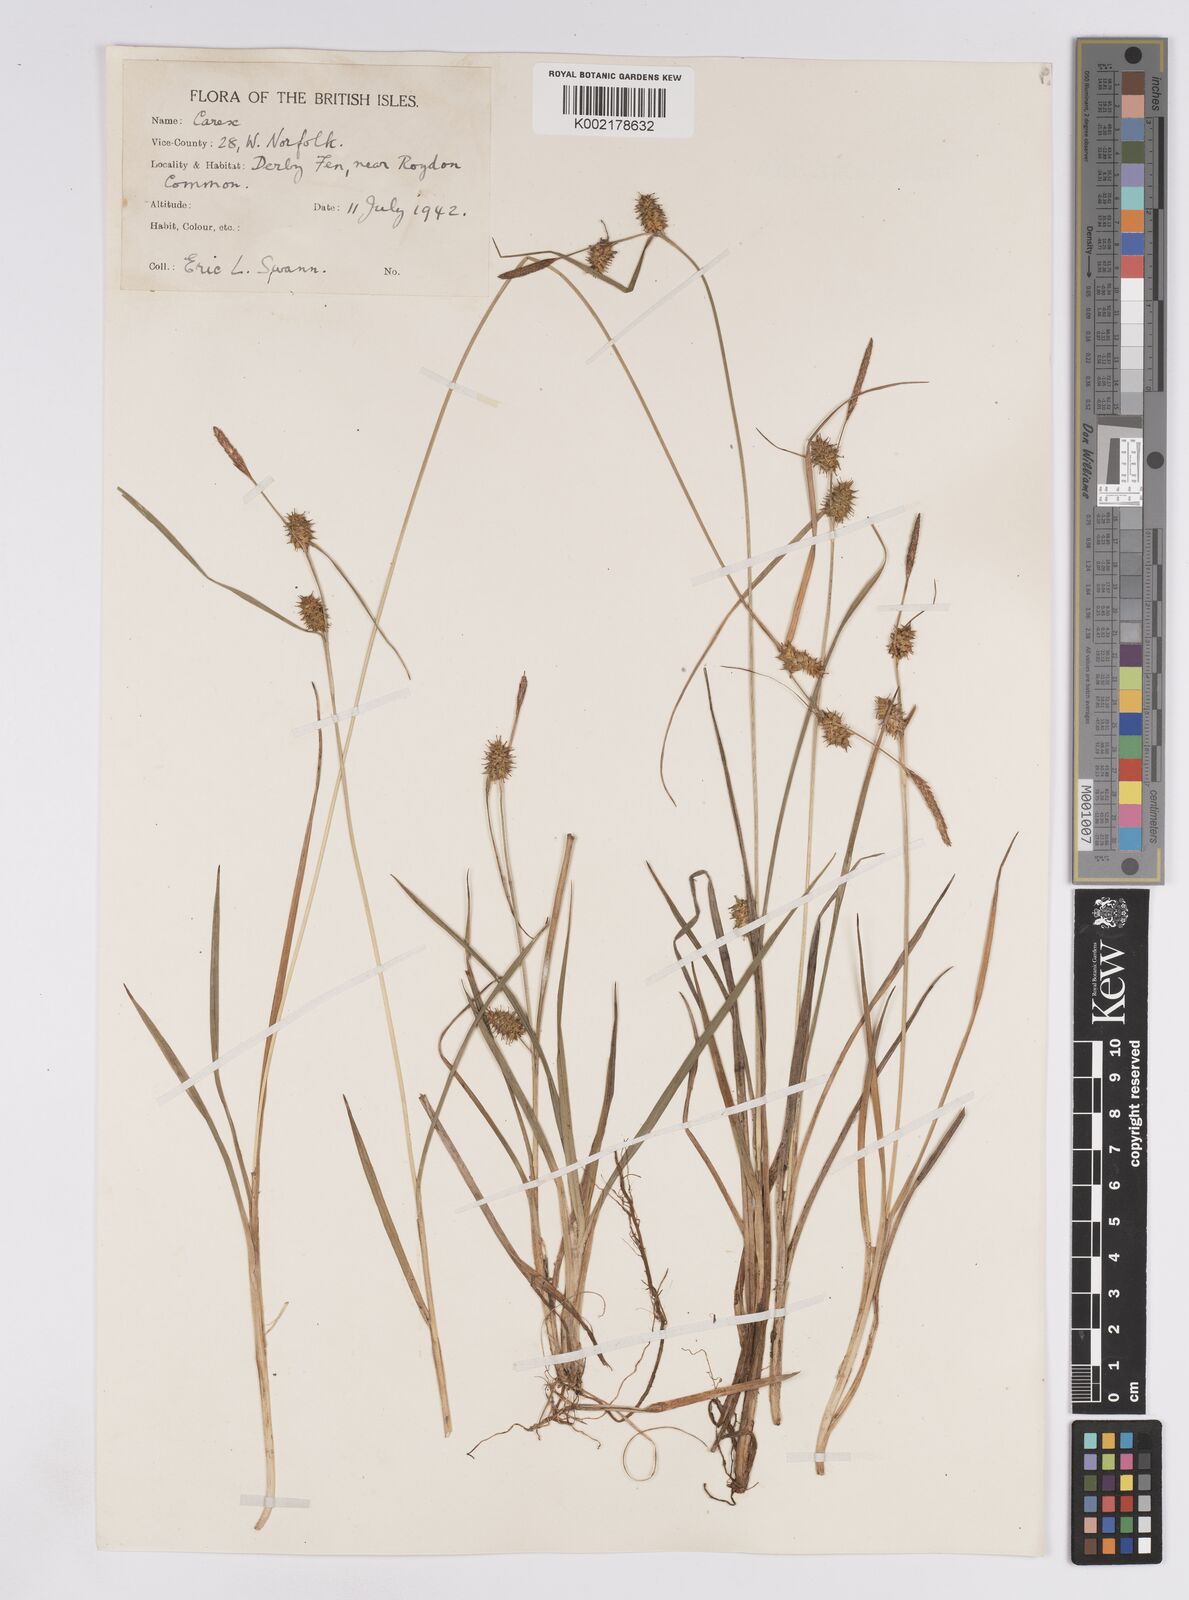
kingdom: Plantae
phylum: Tracheophyta
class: Liliopsida
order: Poales
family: Cyperaceae
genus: Carex
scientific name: Carex lepidocarpa
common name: Long-stalked yellow-sedge
